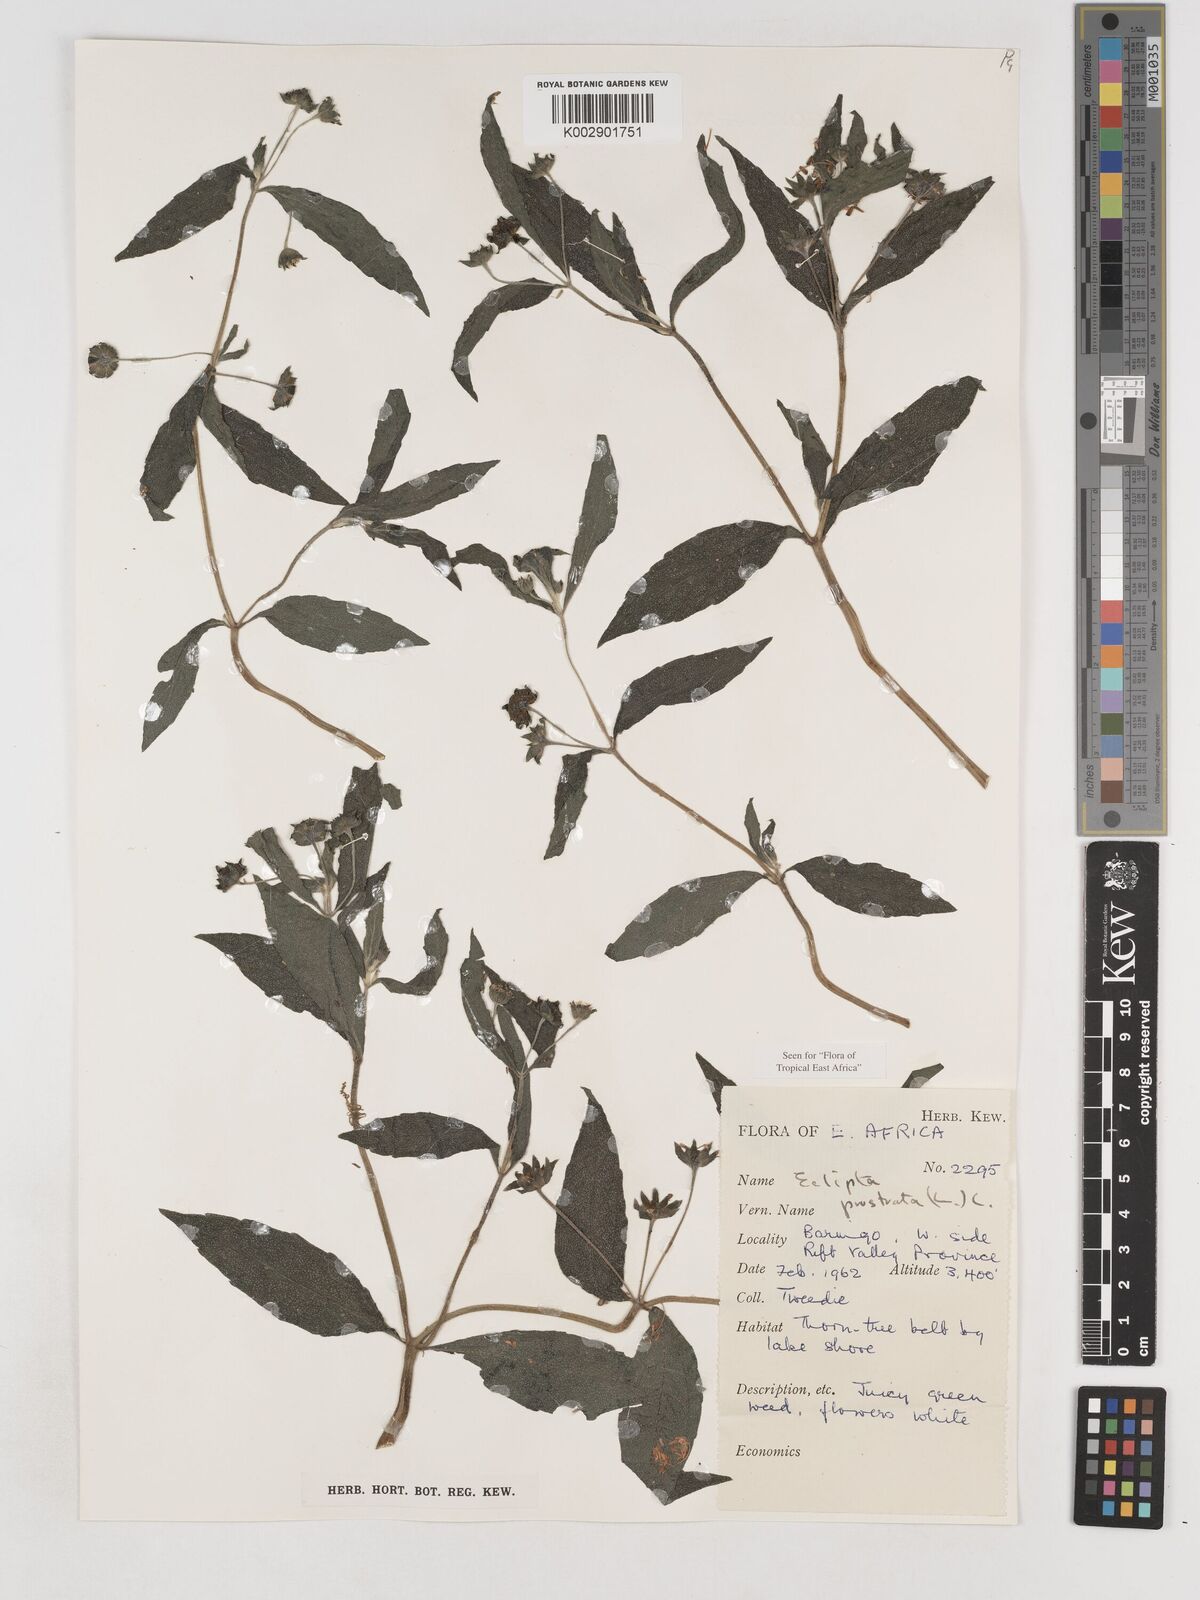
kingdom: Plantae
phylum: Tracheophyta
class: Magnoliopsida
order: Asterales
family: Asteraceae
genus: Eclipta
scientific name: Eclipta prostrata
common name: False daisy
